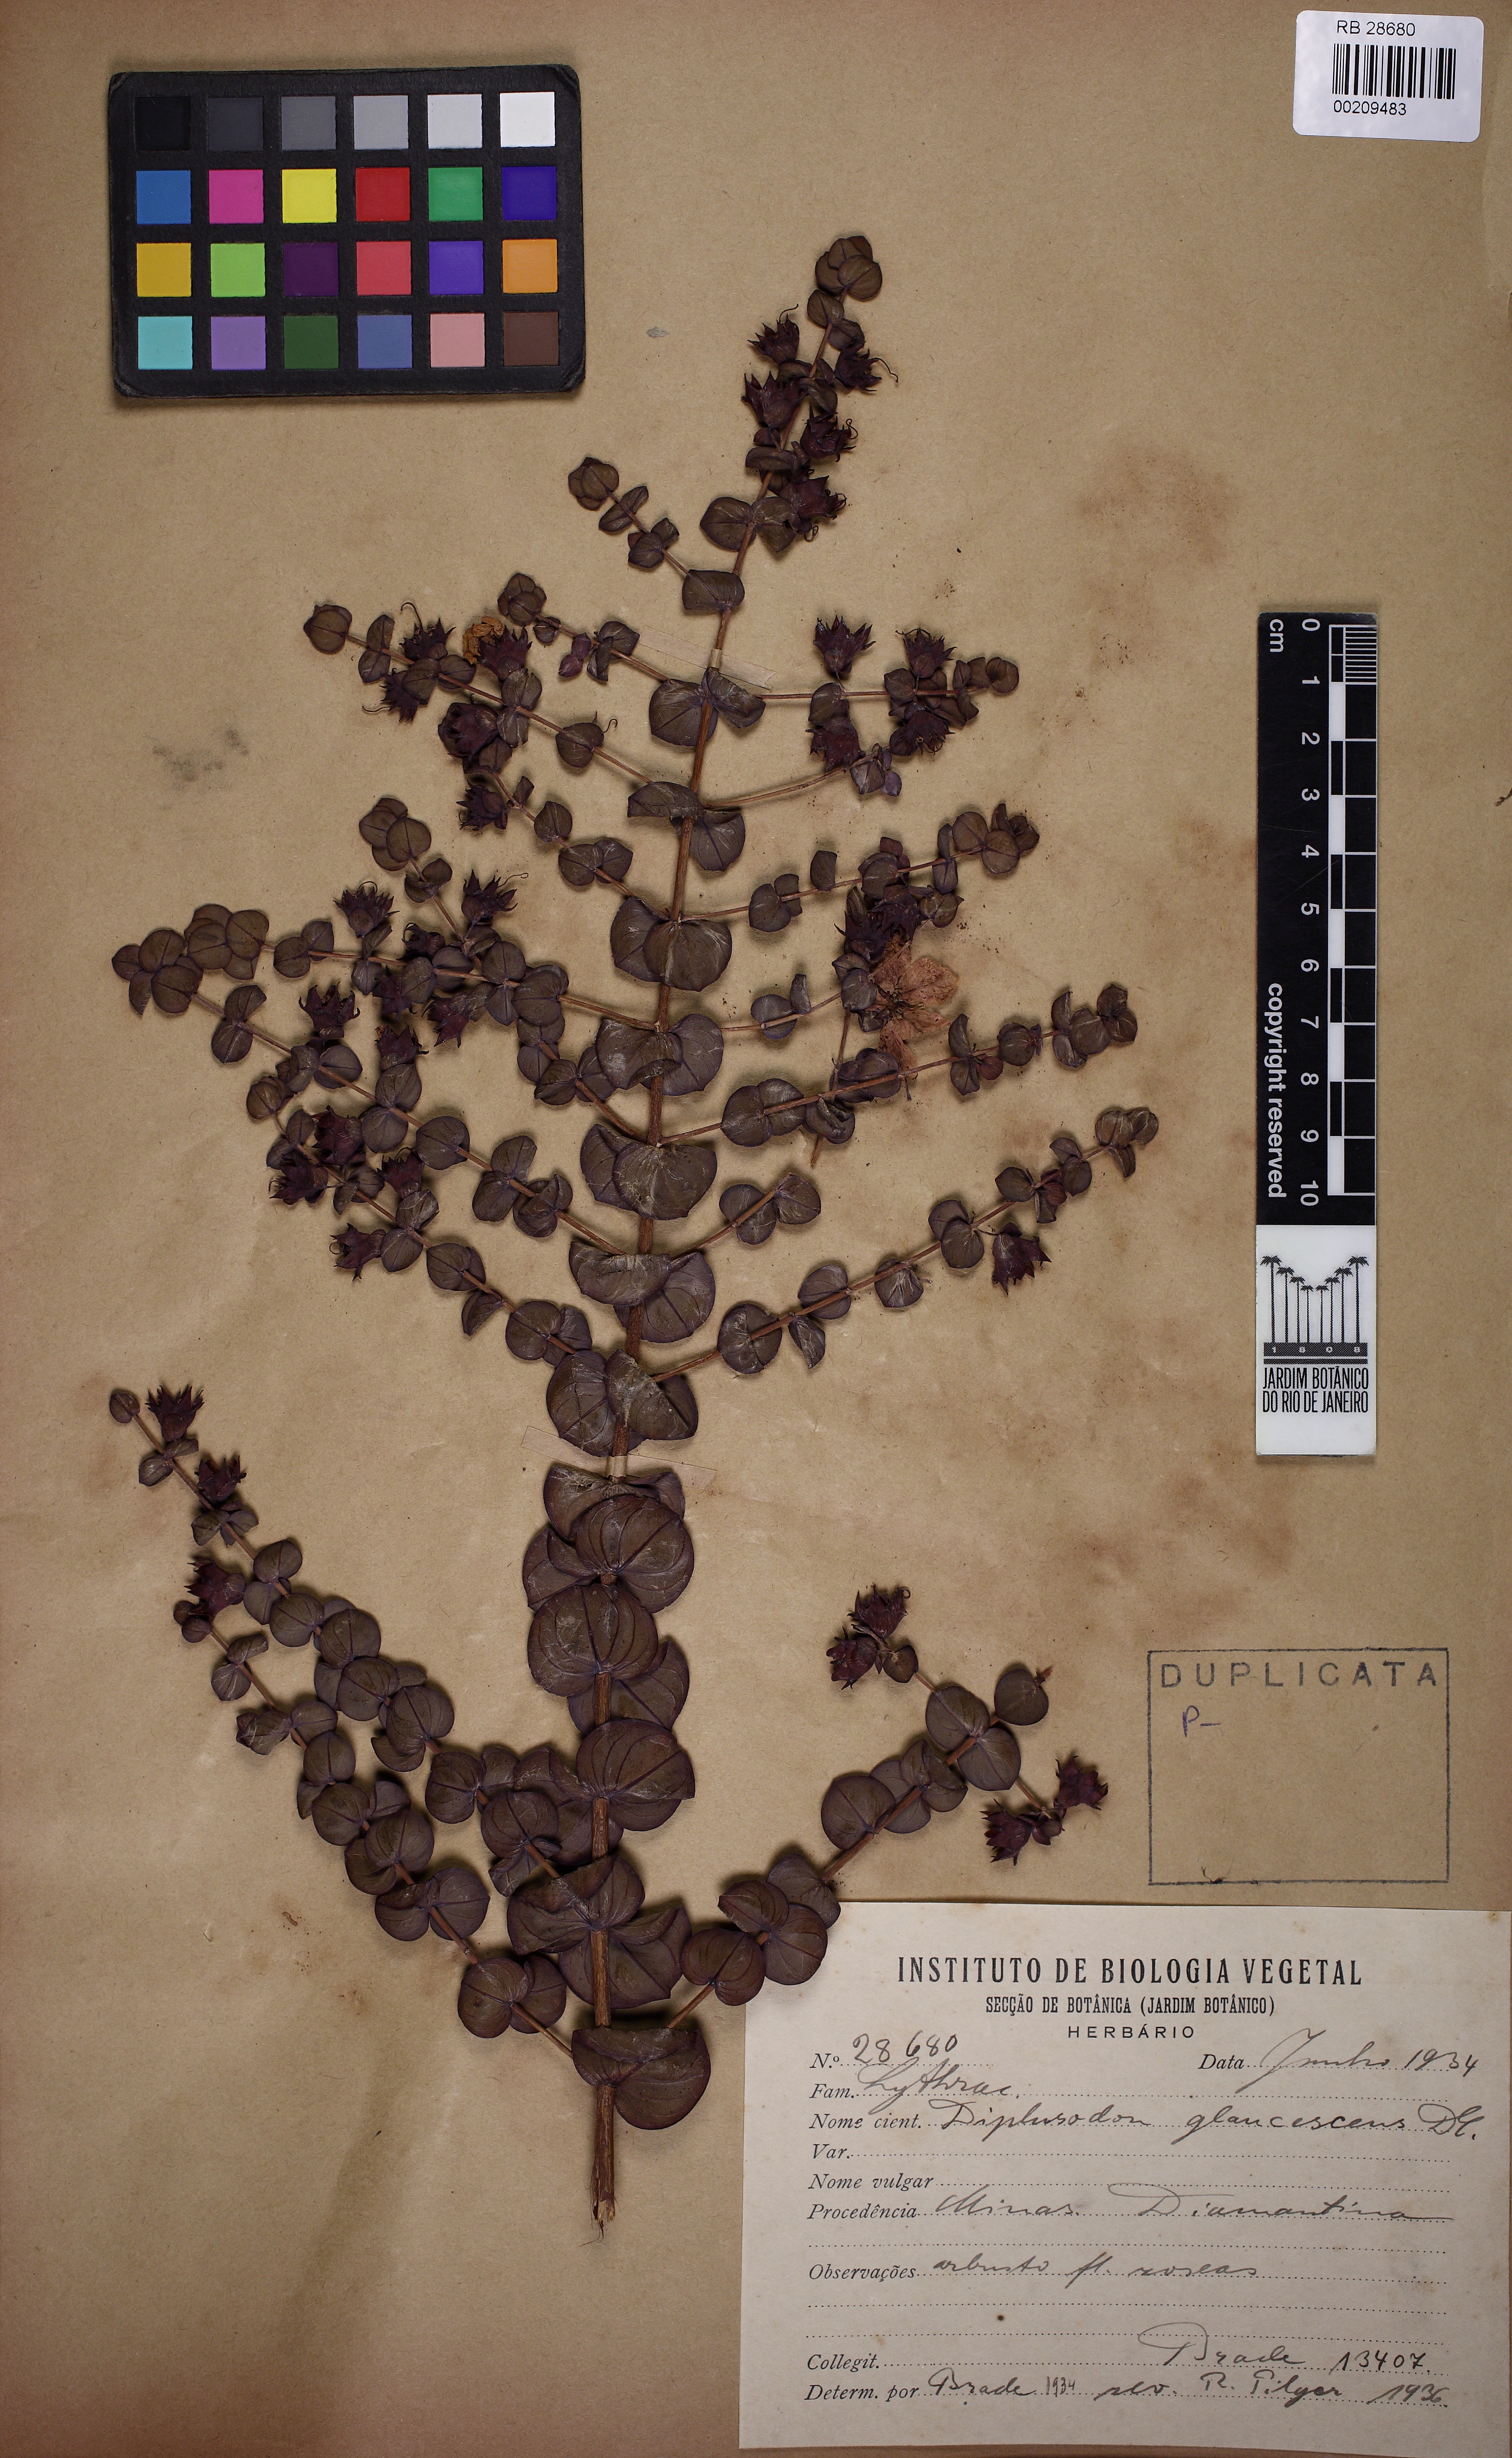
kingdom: Plantae
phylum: Tracheophyta
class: Magnoliopsida
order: Myrtales
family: Lythraceae
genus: Diplusodon
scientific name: Diplusodon glaucescens
